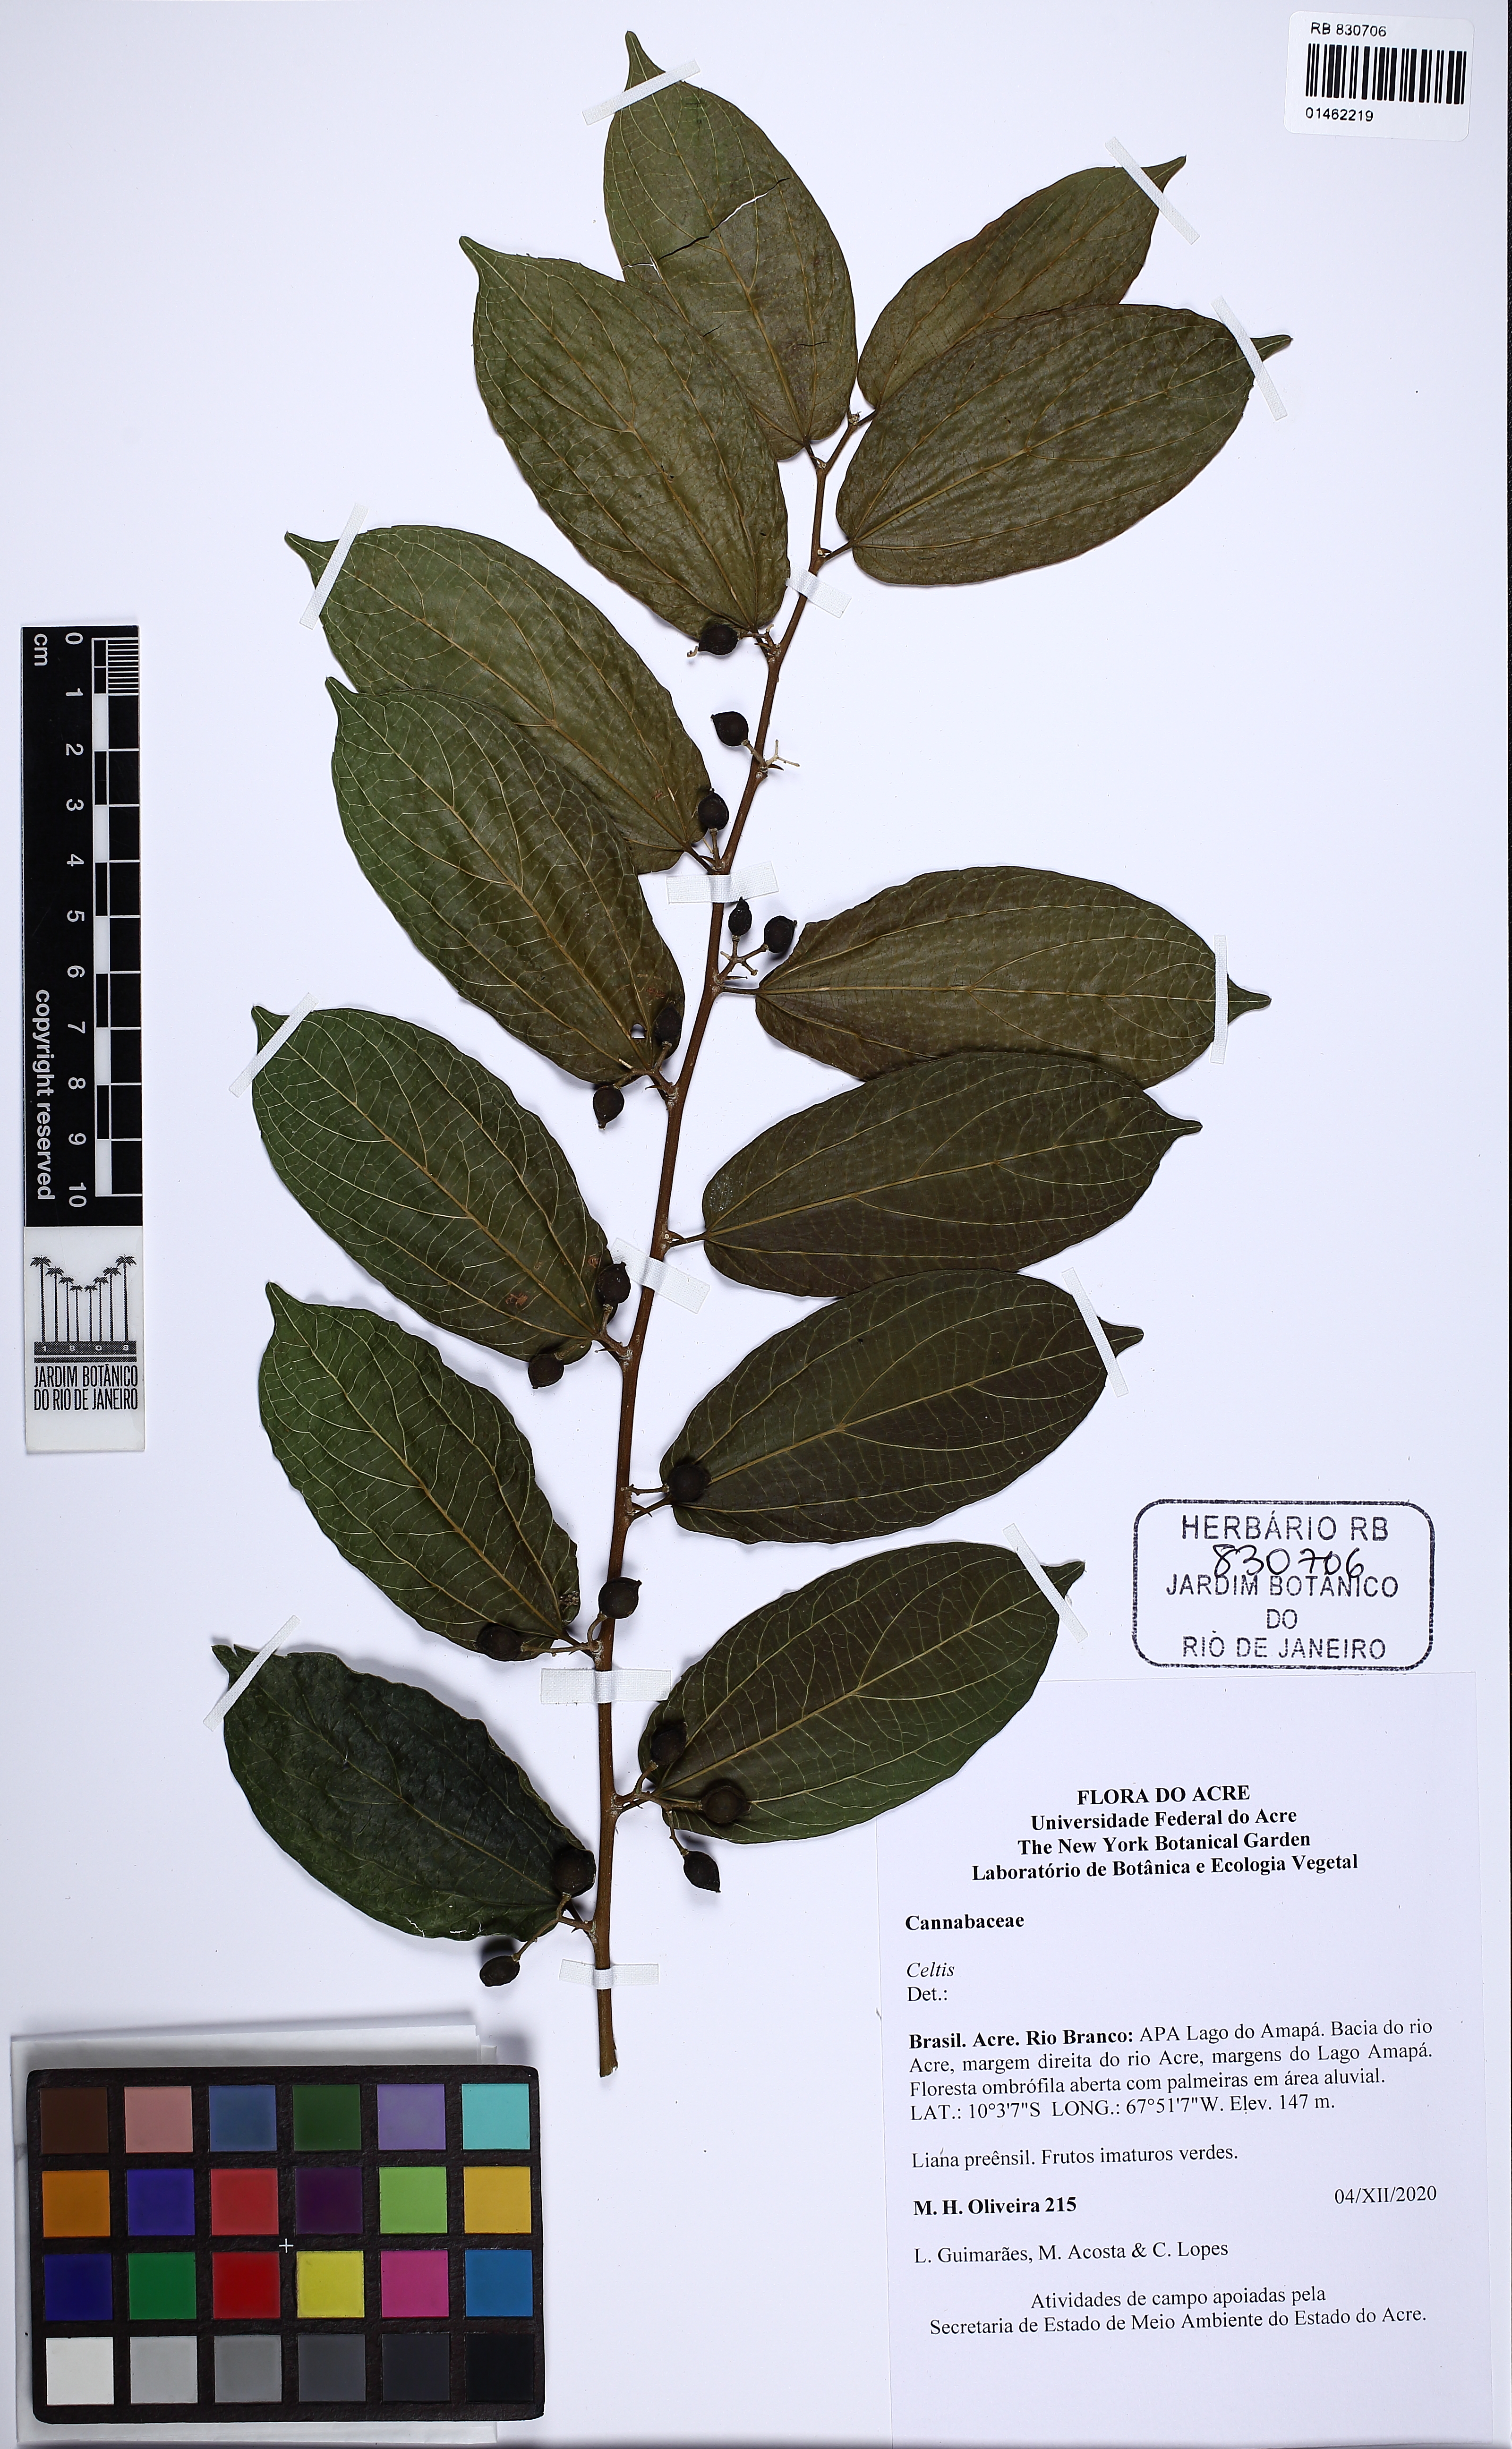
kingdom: Plantae
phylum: Tracheophyta
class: Magnoliopsida
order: Rosales
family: Cannabaceae
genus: Celtis
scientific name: Celtis
